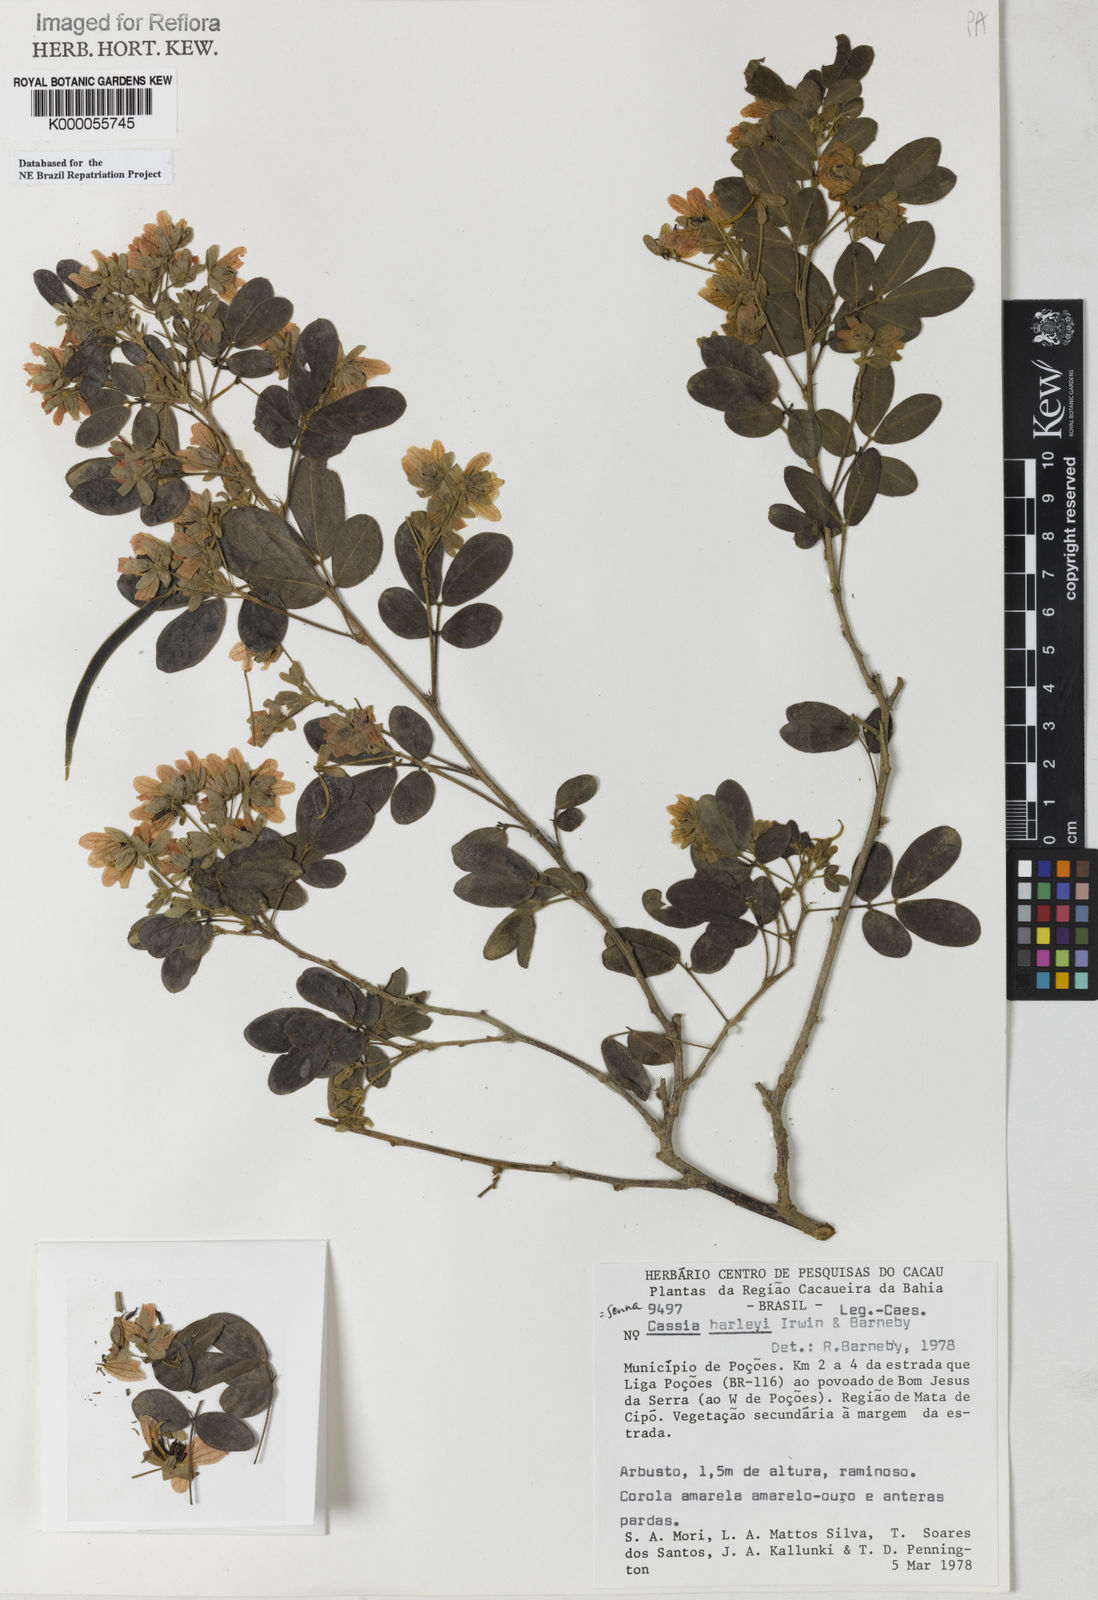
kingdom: Plantae
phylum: Tracheophyta
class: Magnoliopsida
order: Fabales
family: Fabaceae
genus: Senna
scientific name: Senna harleyi
